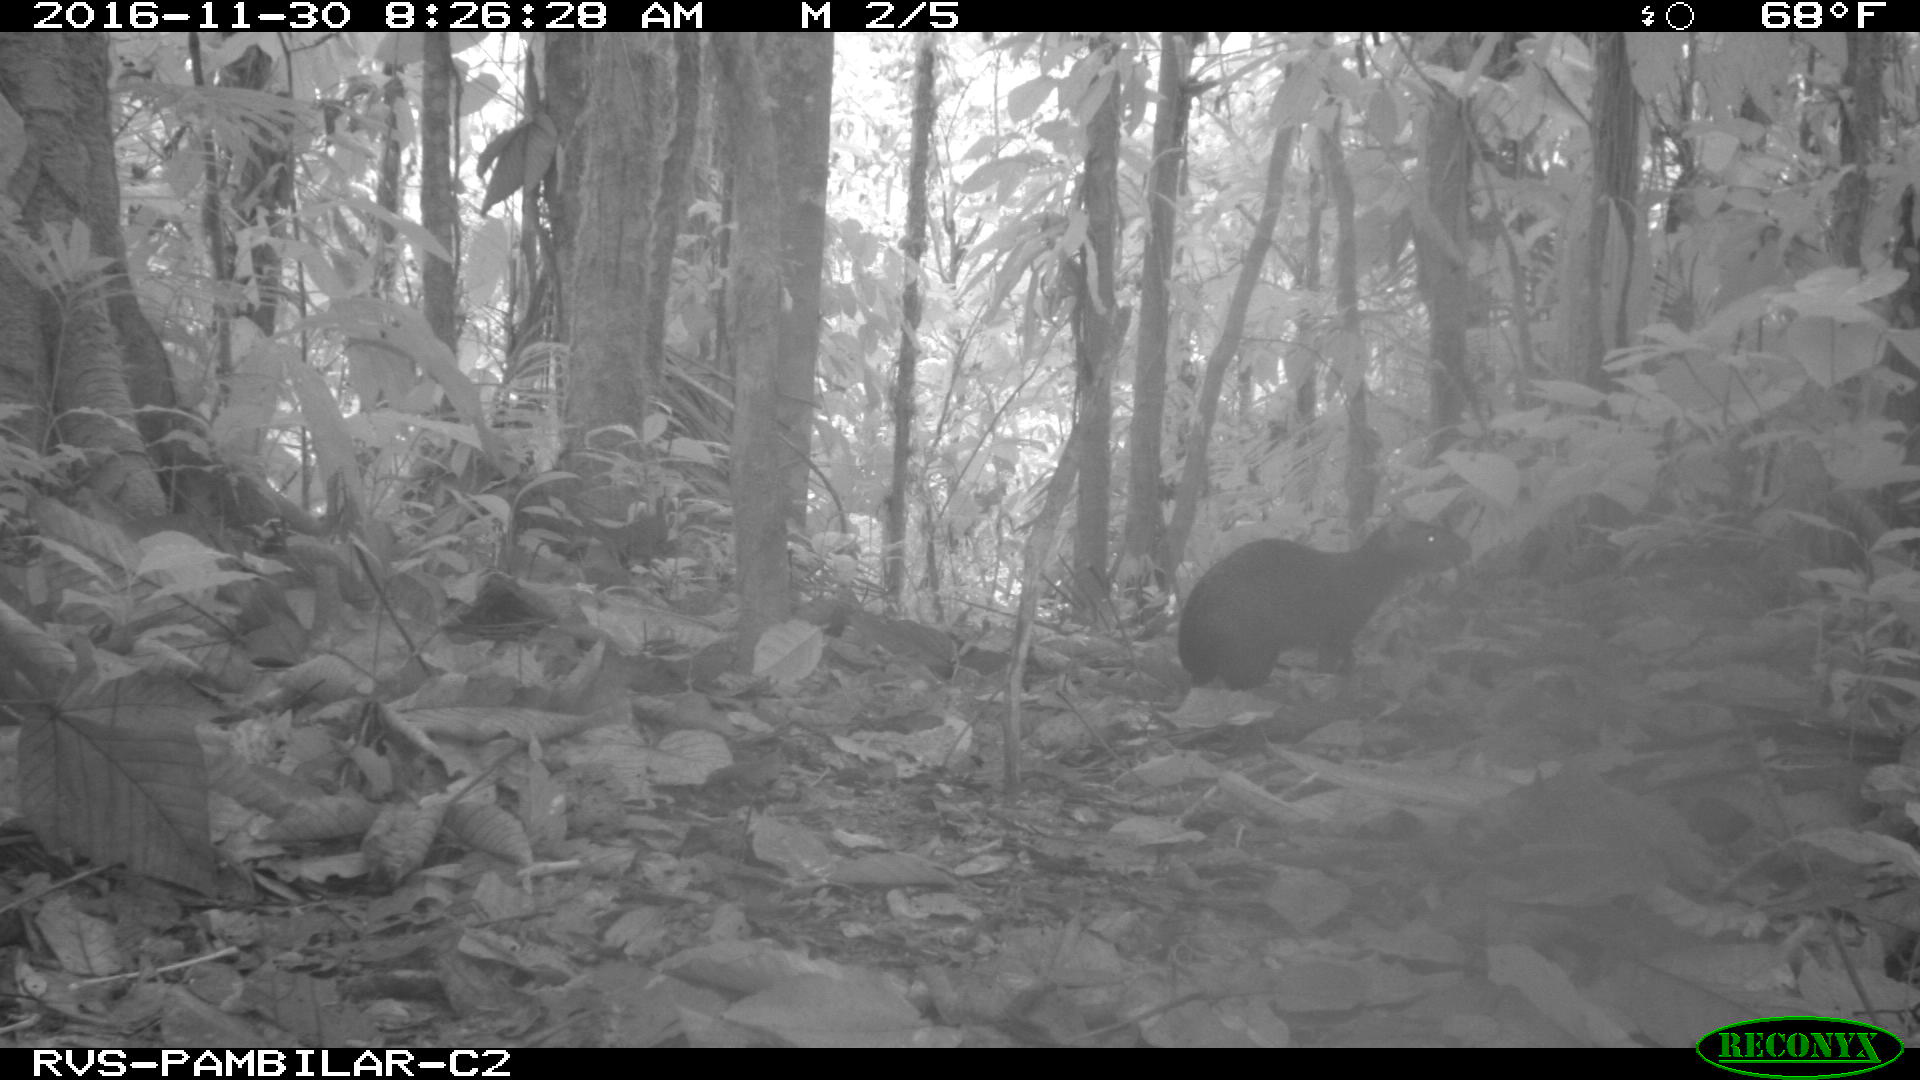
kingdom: Animalia
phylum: Chordata
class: Mammalia
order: Rodentia
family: Dasyproctidae
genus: Dasyprocta
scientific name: Dasyprocta punctata
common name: Central american agouti
